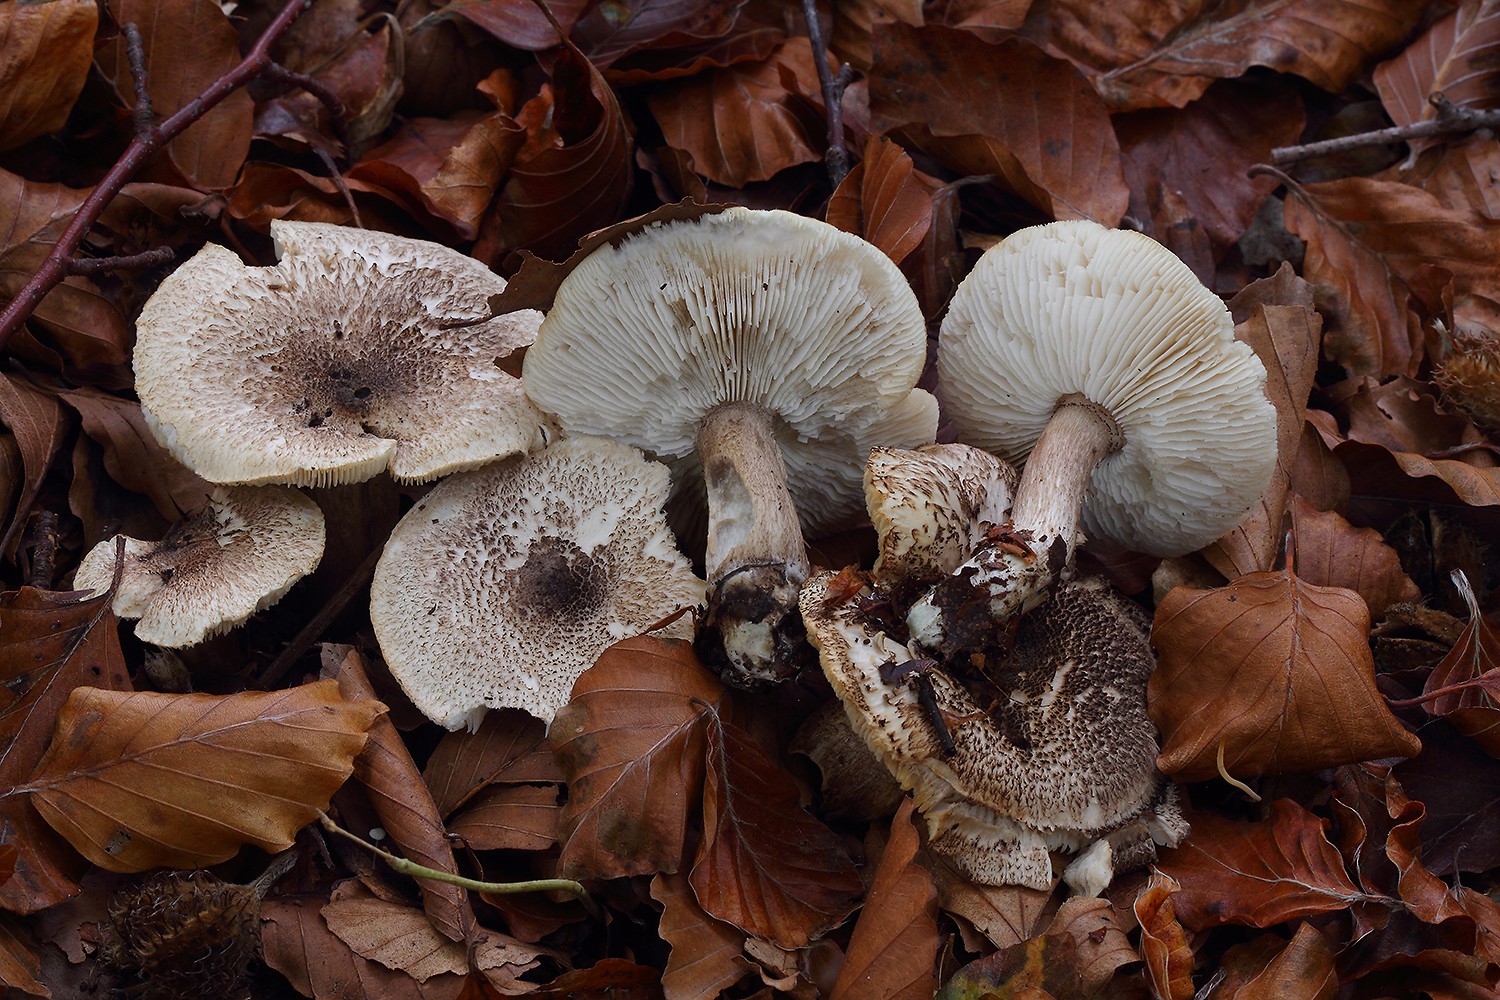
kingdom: Fungi
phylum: Basidiomycota
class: Agaricomycetes
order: Agaricales
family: Tricholomataceae
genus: Tricholoma
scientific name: Tricholoma atrosquamosum
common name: sortskællet ridderhat
